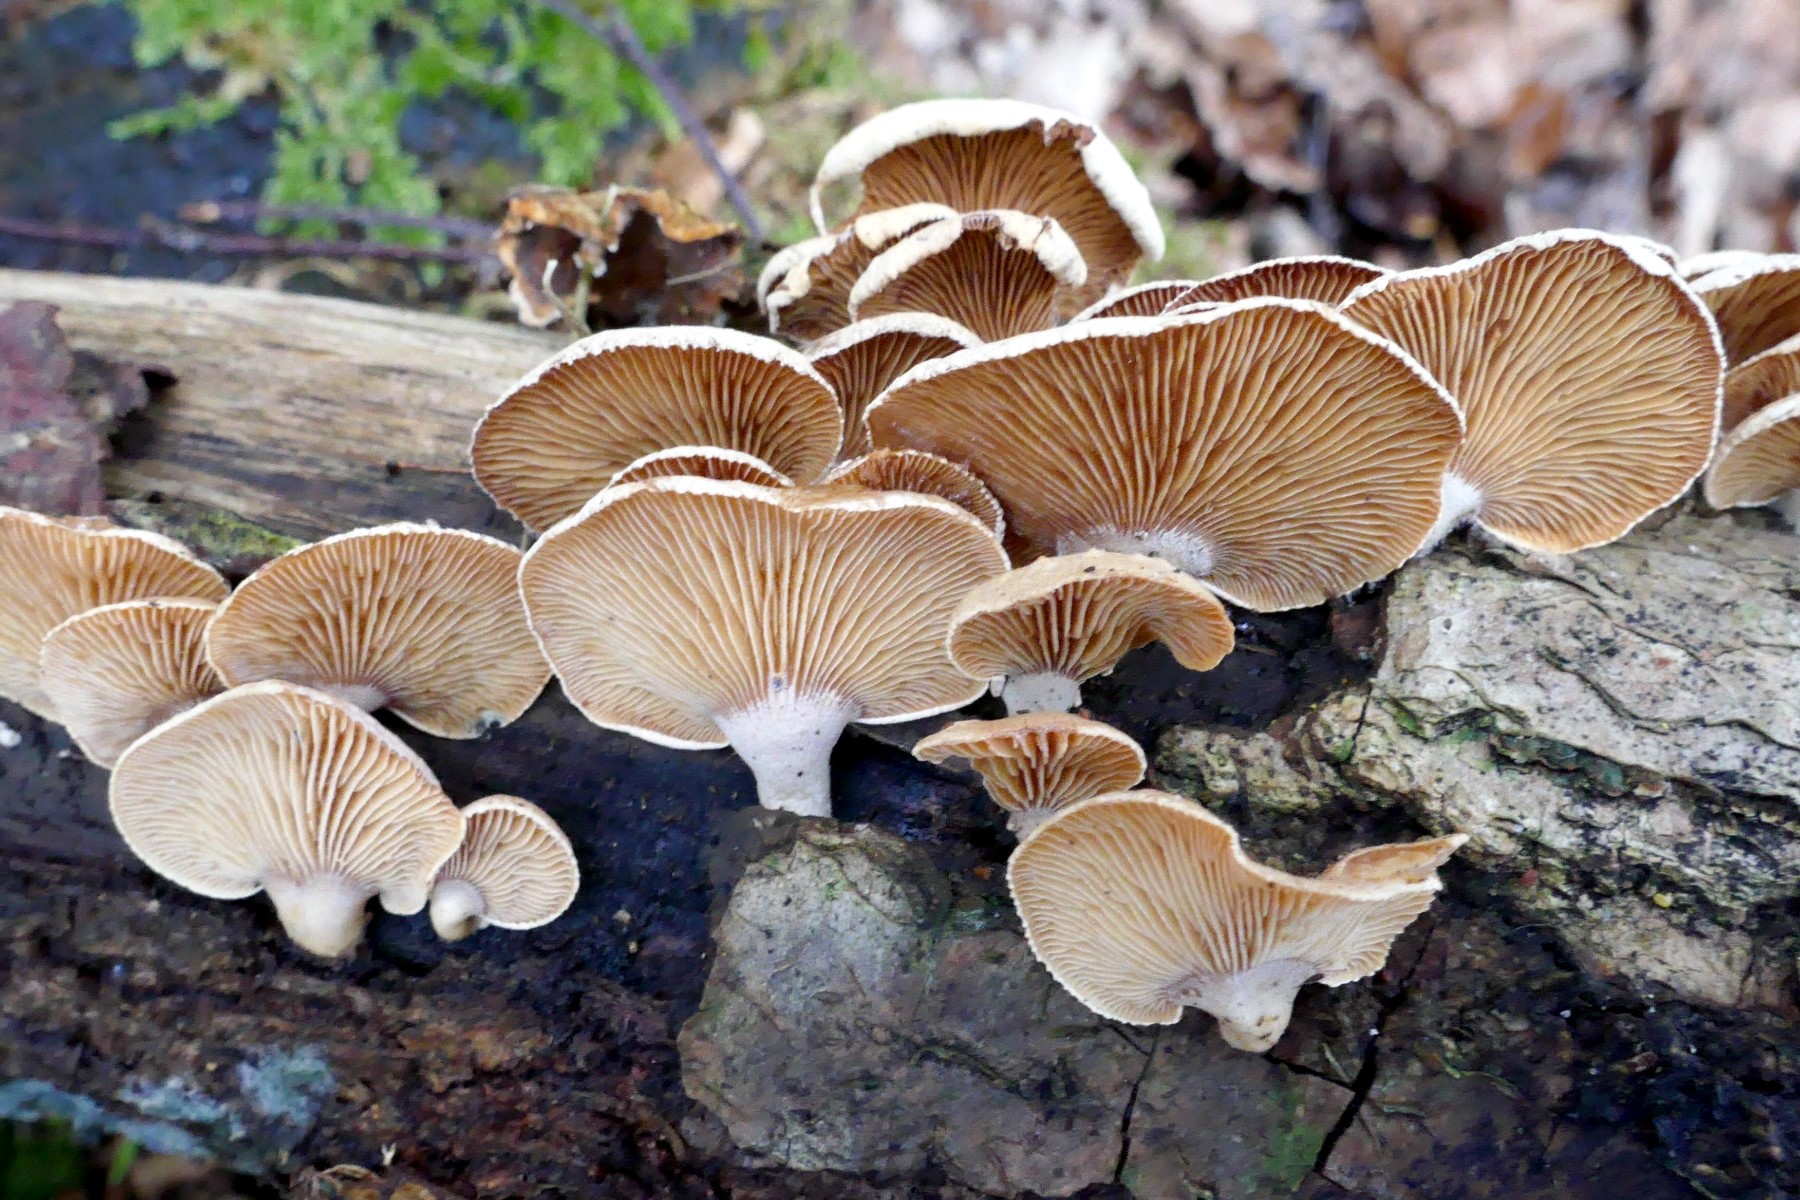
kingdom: Fungi
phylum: Basidiomycota
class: Agaricomycetes
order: Agaricales
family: Mycenaceae
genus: Panellus
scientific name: Panellus stipticus
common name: kliddet epaulethat
